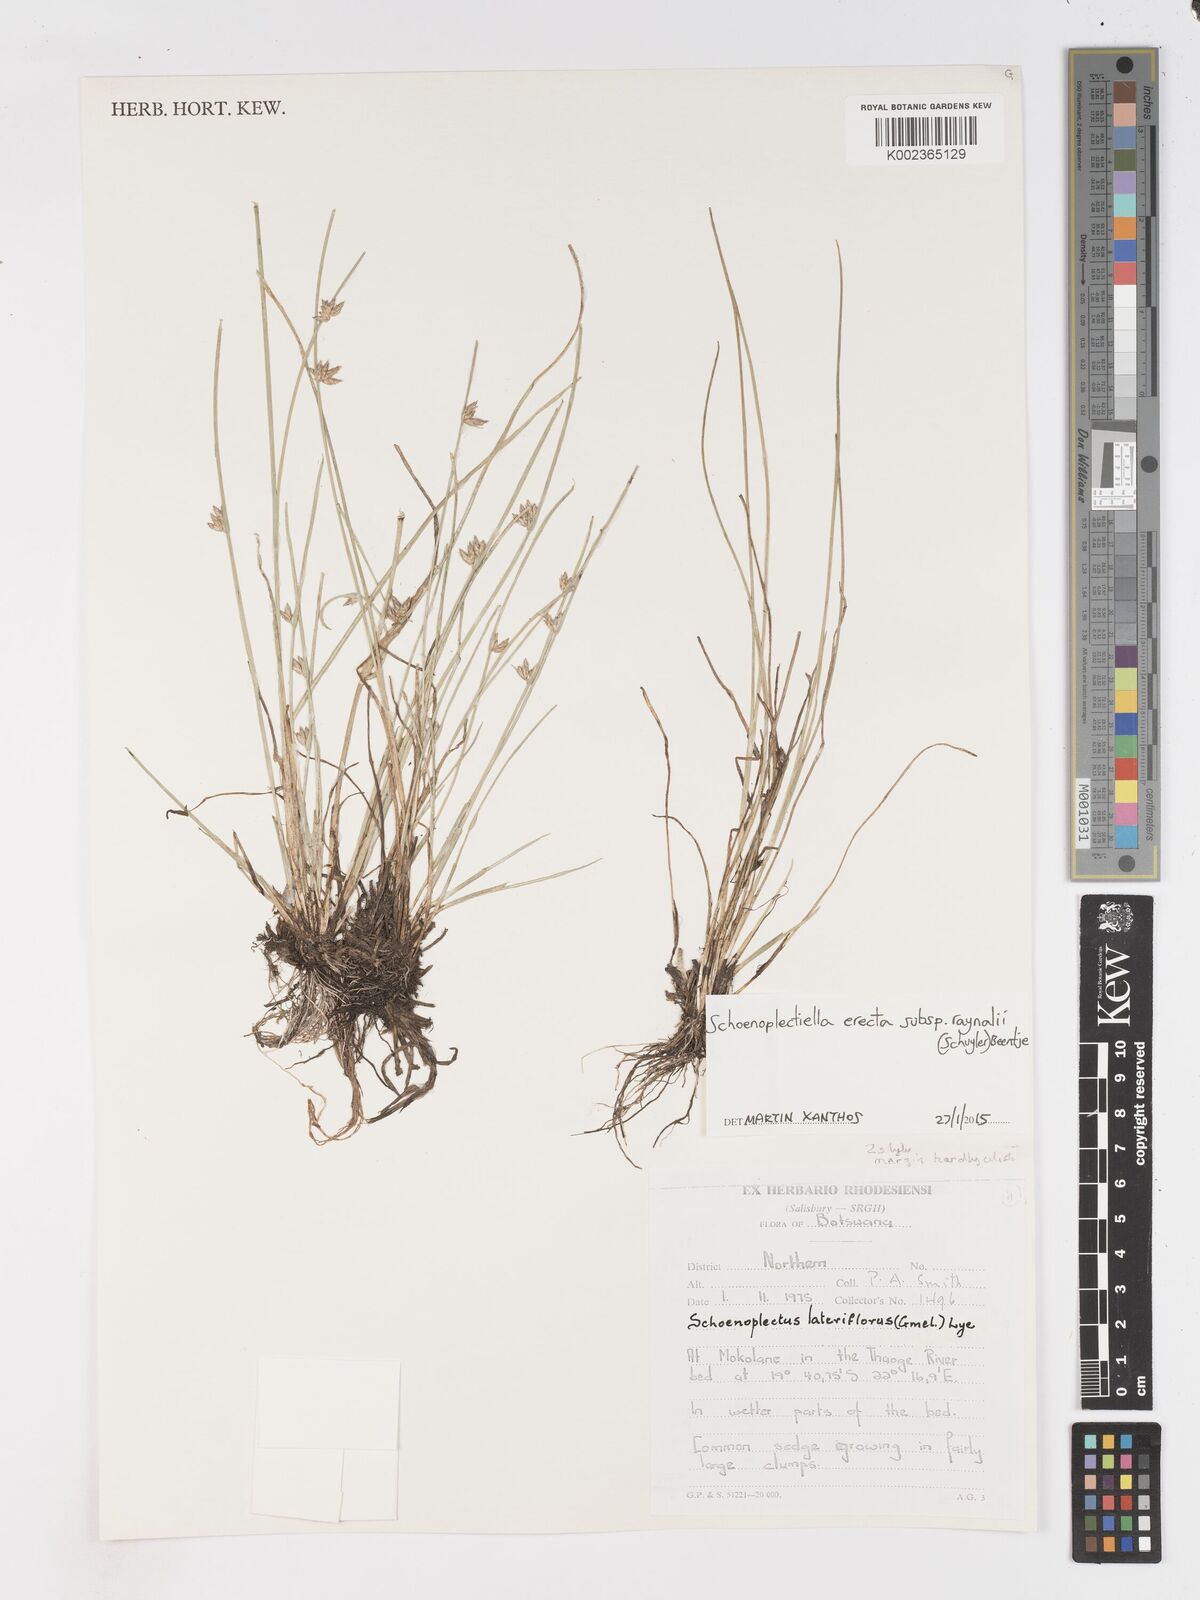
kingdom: Plantae
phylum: Tracheophyta
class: Liliopsida
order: Poales
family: Cyperaceae
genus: Schoenoplectiella
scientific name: Schoenoplectiella erecta
